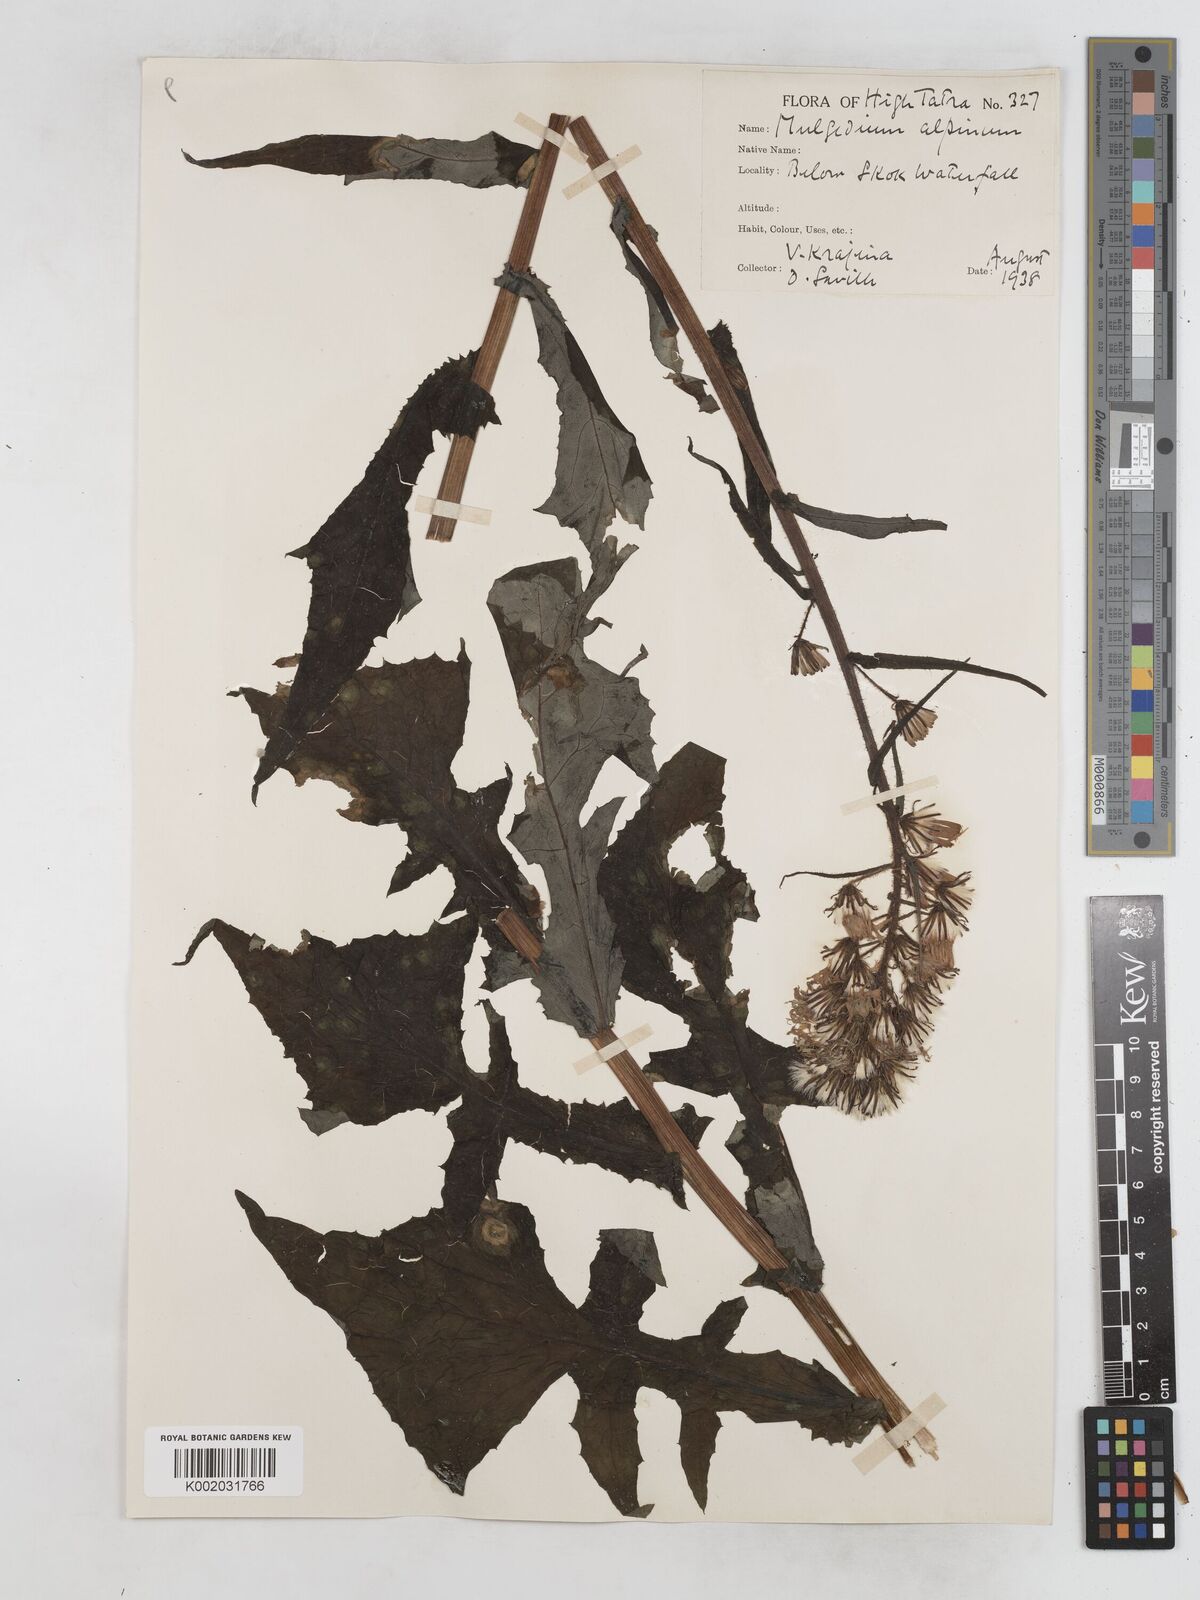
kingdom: Plantae
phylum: Tracheophyta
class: Magnoliopsida
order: Asterales
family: Asteraceae
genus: Cicerbita
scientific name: Cicerbita alpina
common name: Alpine blue-sow-thistle
